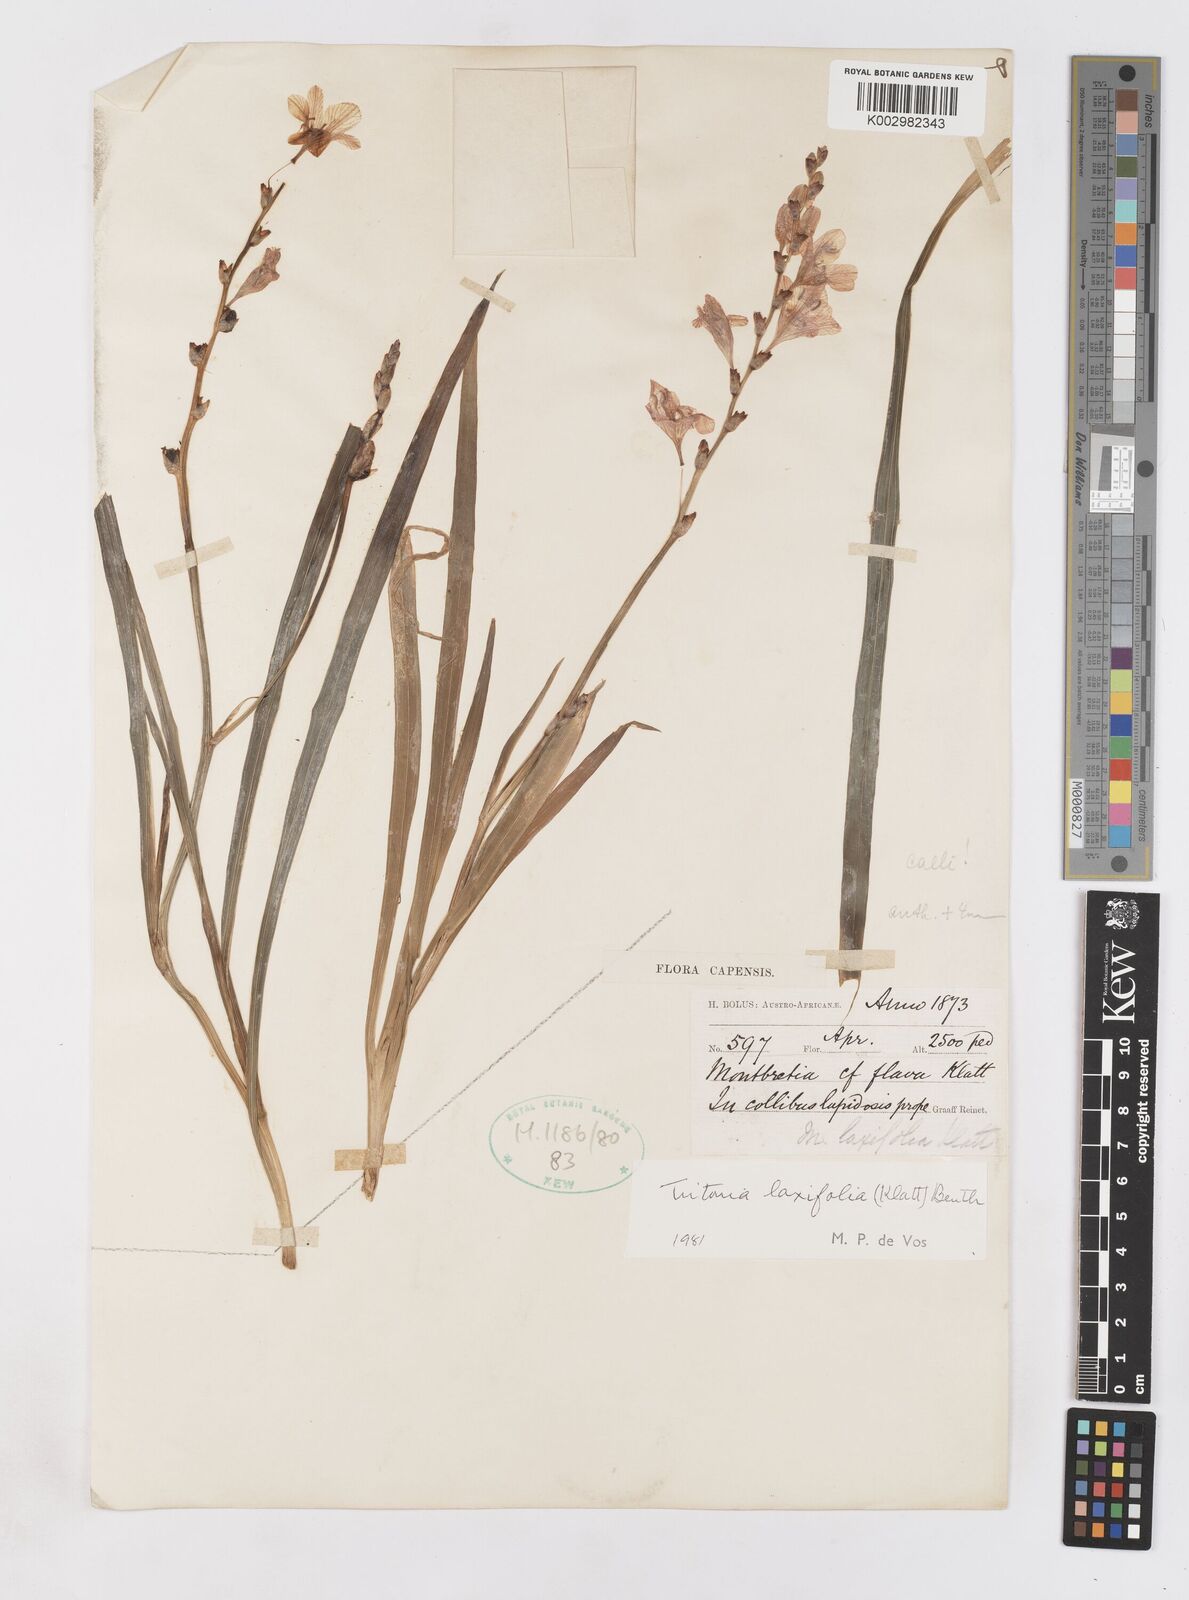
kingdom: Plantae
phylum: Tracheophyta
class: Liliopsida
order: Asparagales
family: Iridaceae
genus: Tritonia
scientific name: Tritonia laxifolia
